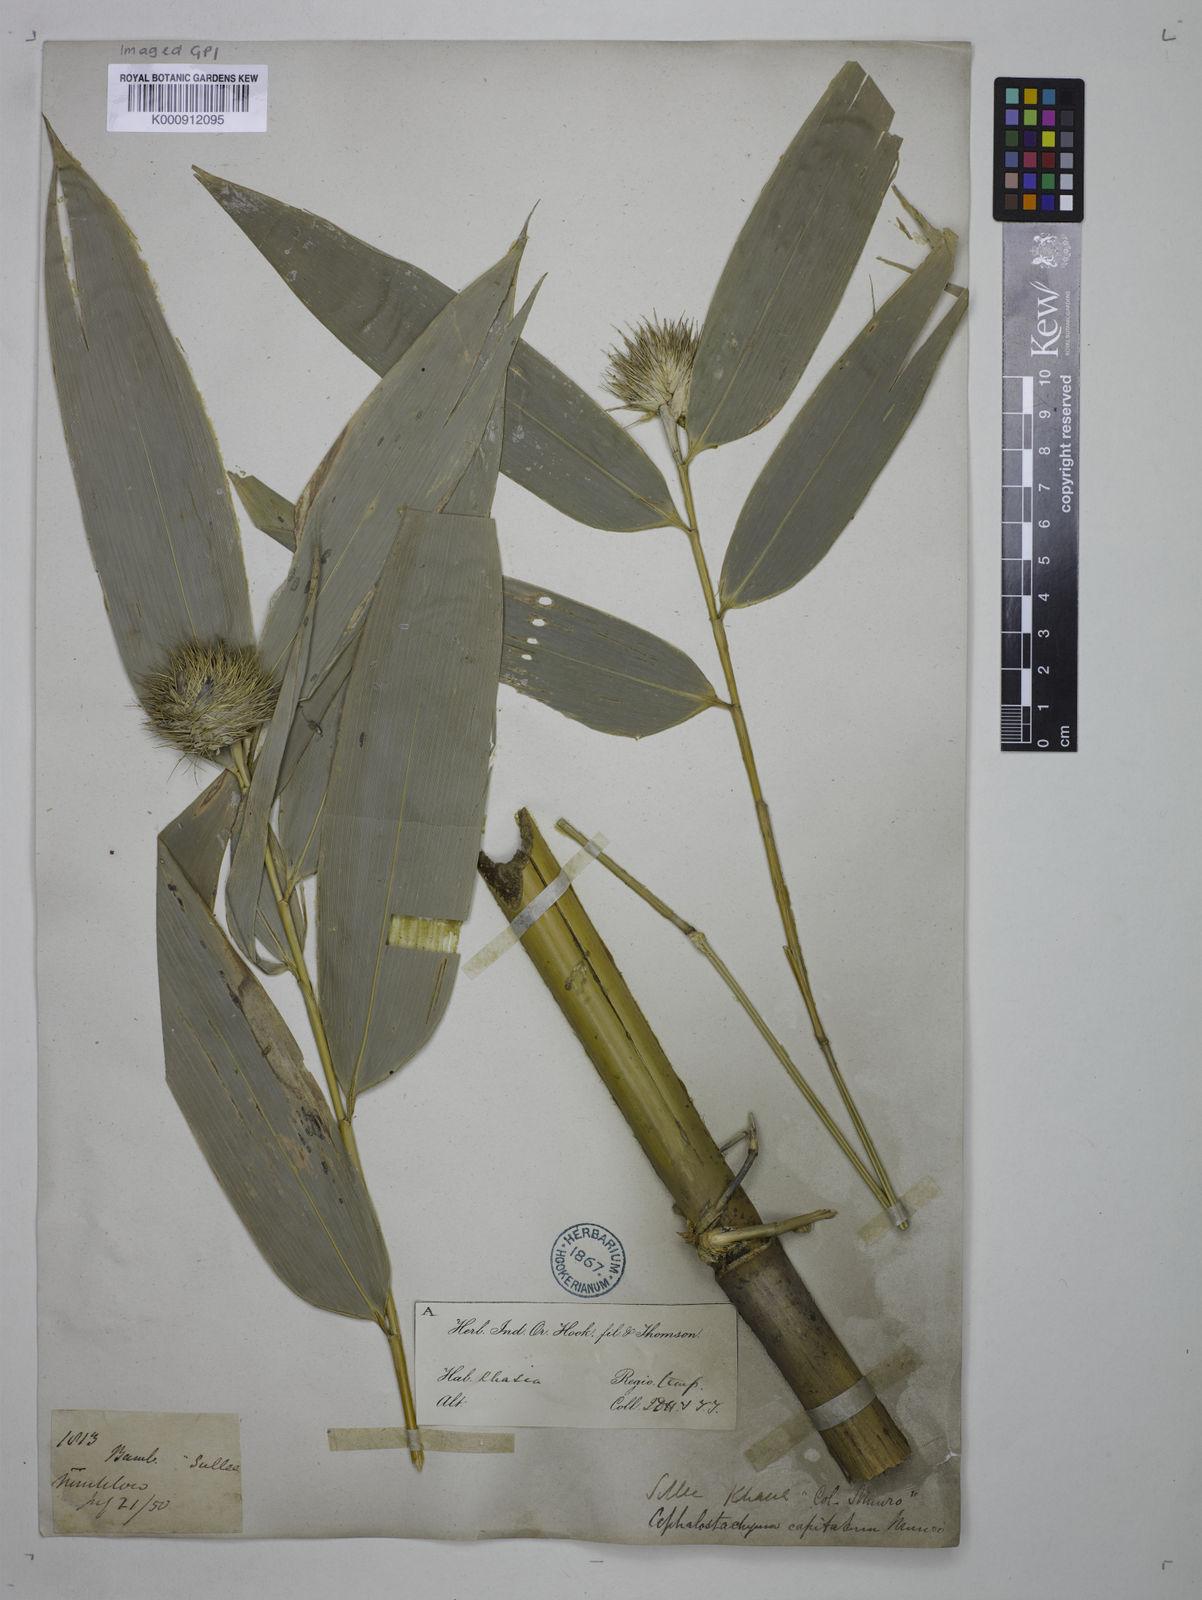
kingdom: Plantae
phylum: Tracheophyta
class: Liliopsida
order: Poales
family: Poaceae
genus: Cephalostachyum
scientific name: Cephalostachyum capitatum
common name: Hollow bamboo
